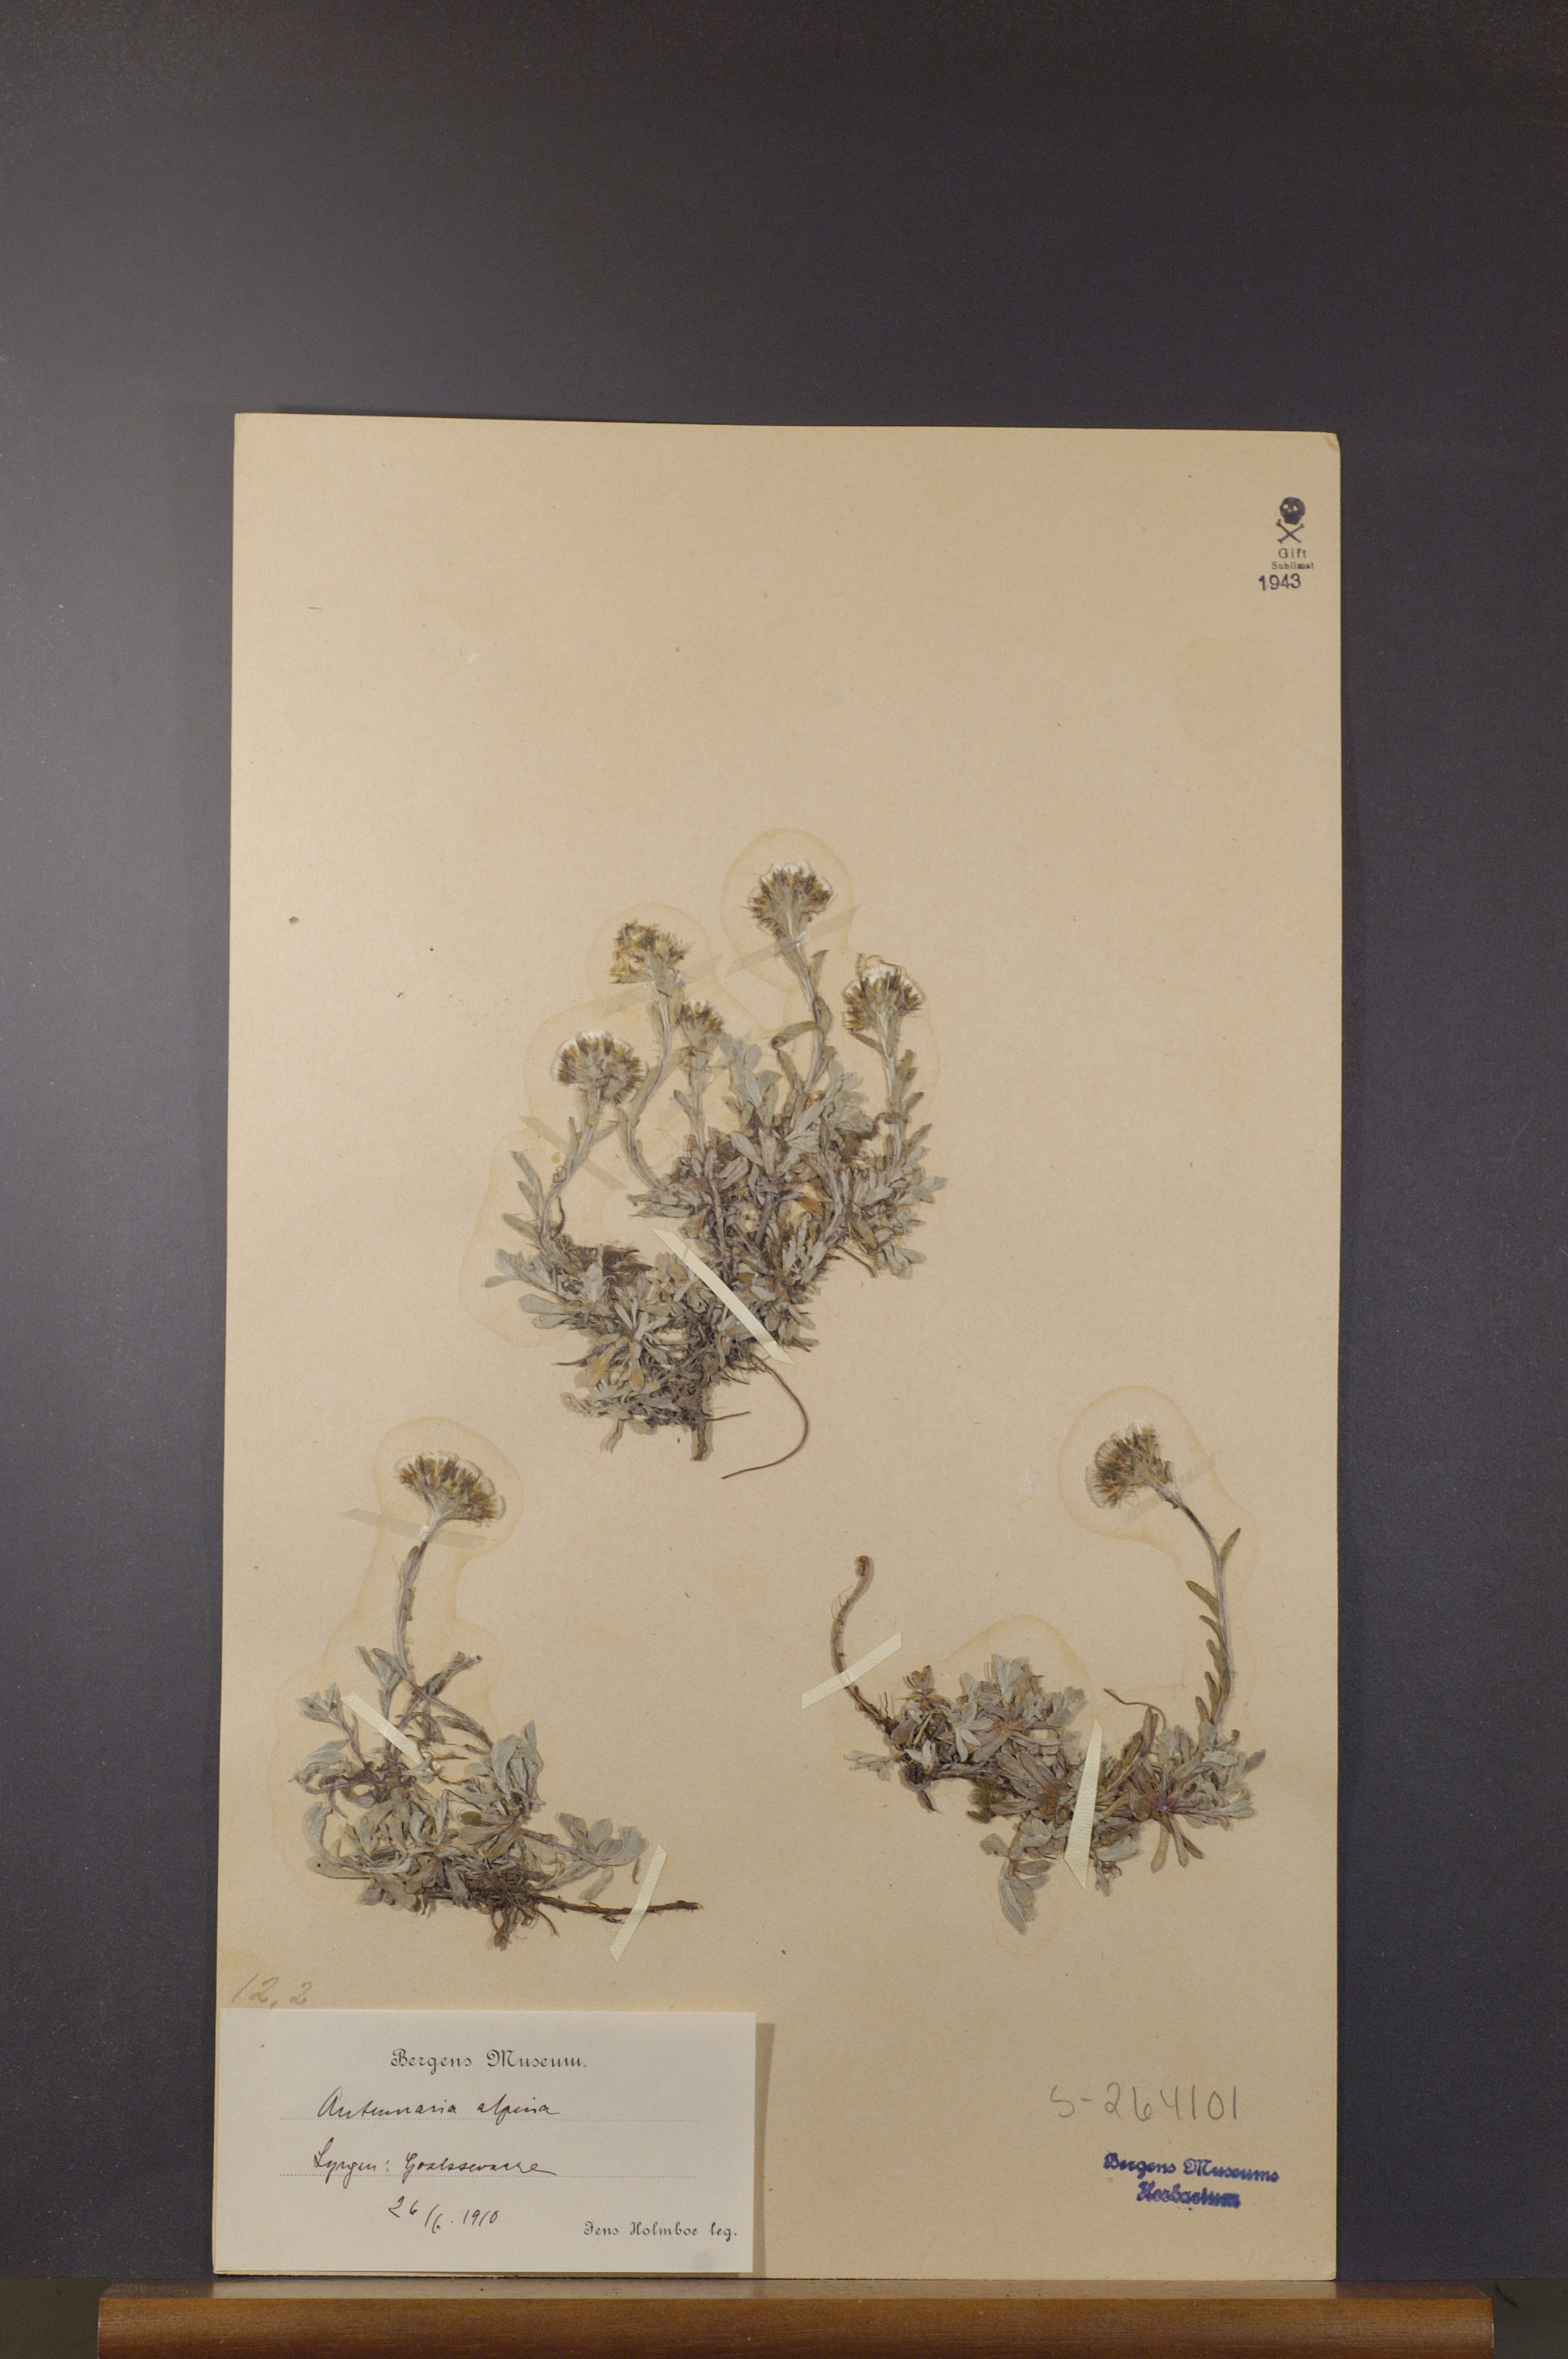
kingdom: Plantae
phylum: Tracheophyta
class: Magnoliopsida
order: Asterales
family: Asteraceae
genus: Antennaria
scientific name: Antennaria alpina
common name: Alpine pussytoes
